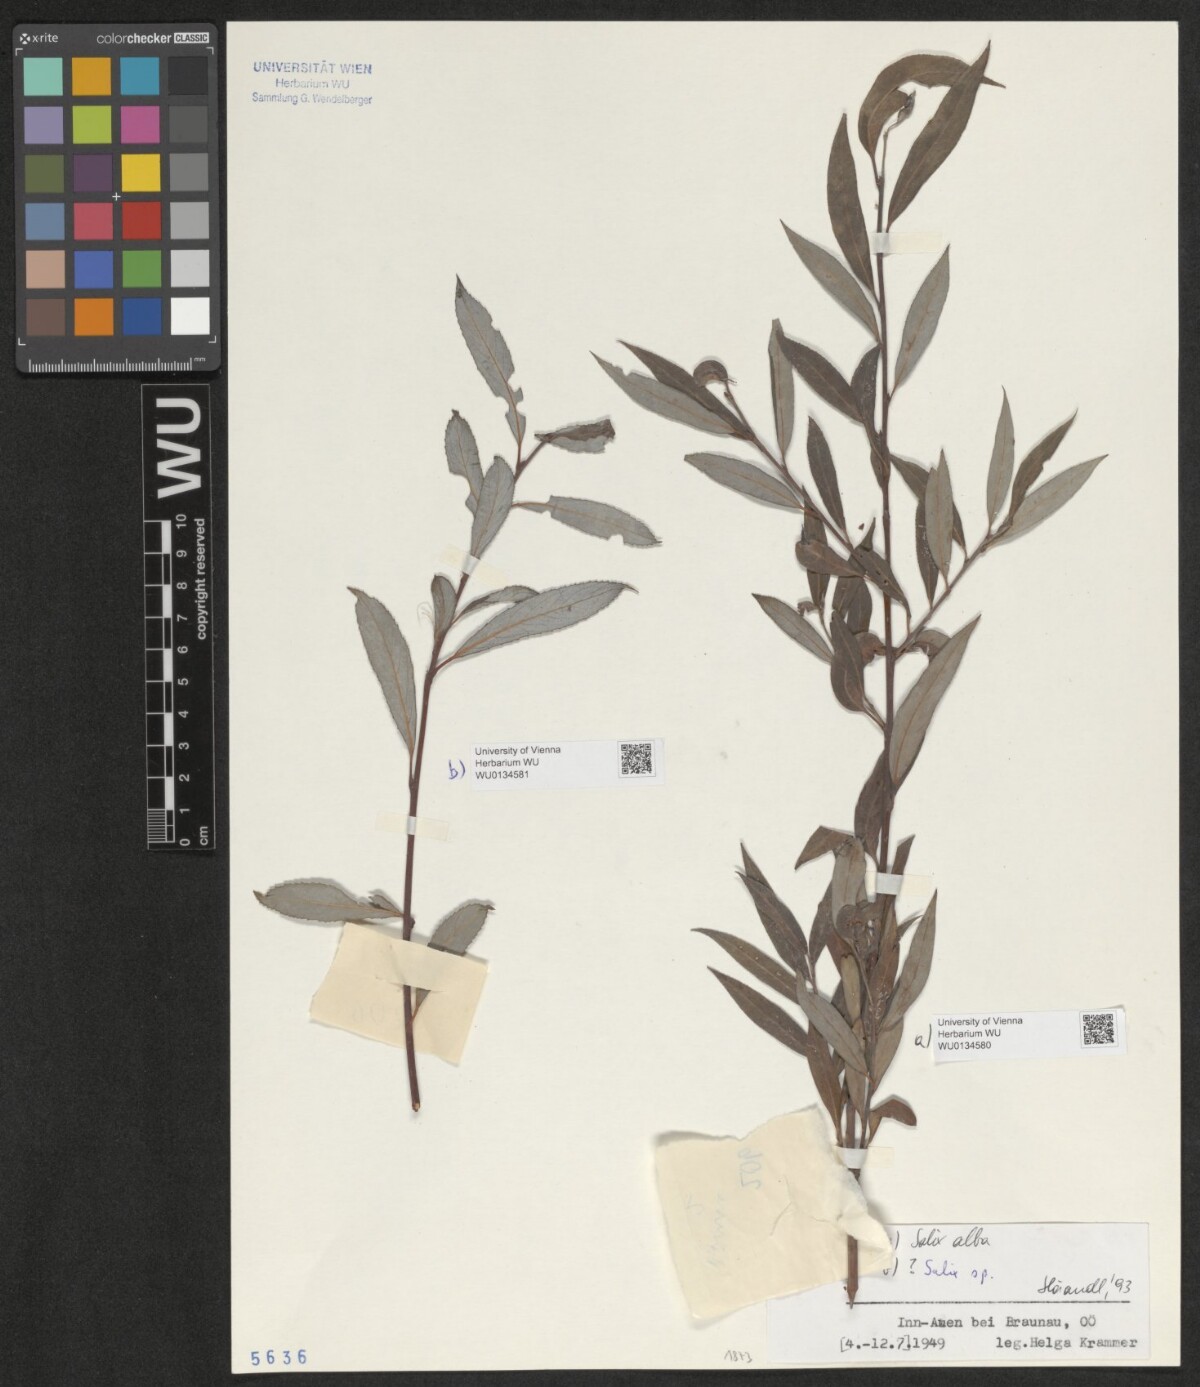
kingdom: Plantae
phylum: Tracheophyta
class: Magnoliopsida
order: Malpighiales
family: Salicaceae
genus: Salix
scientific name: Salix alba
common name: White willow
